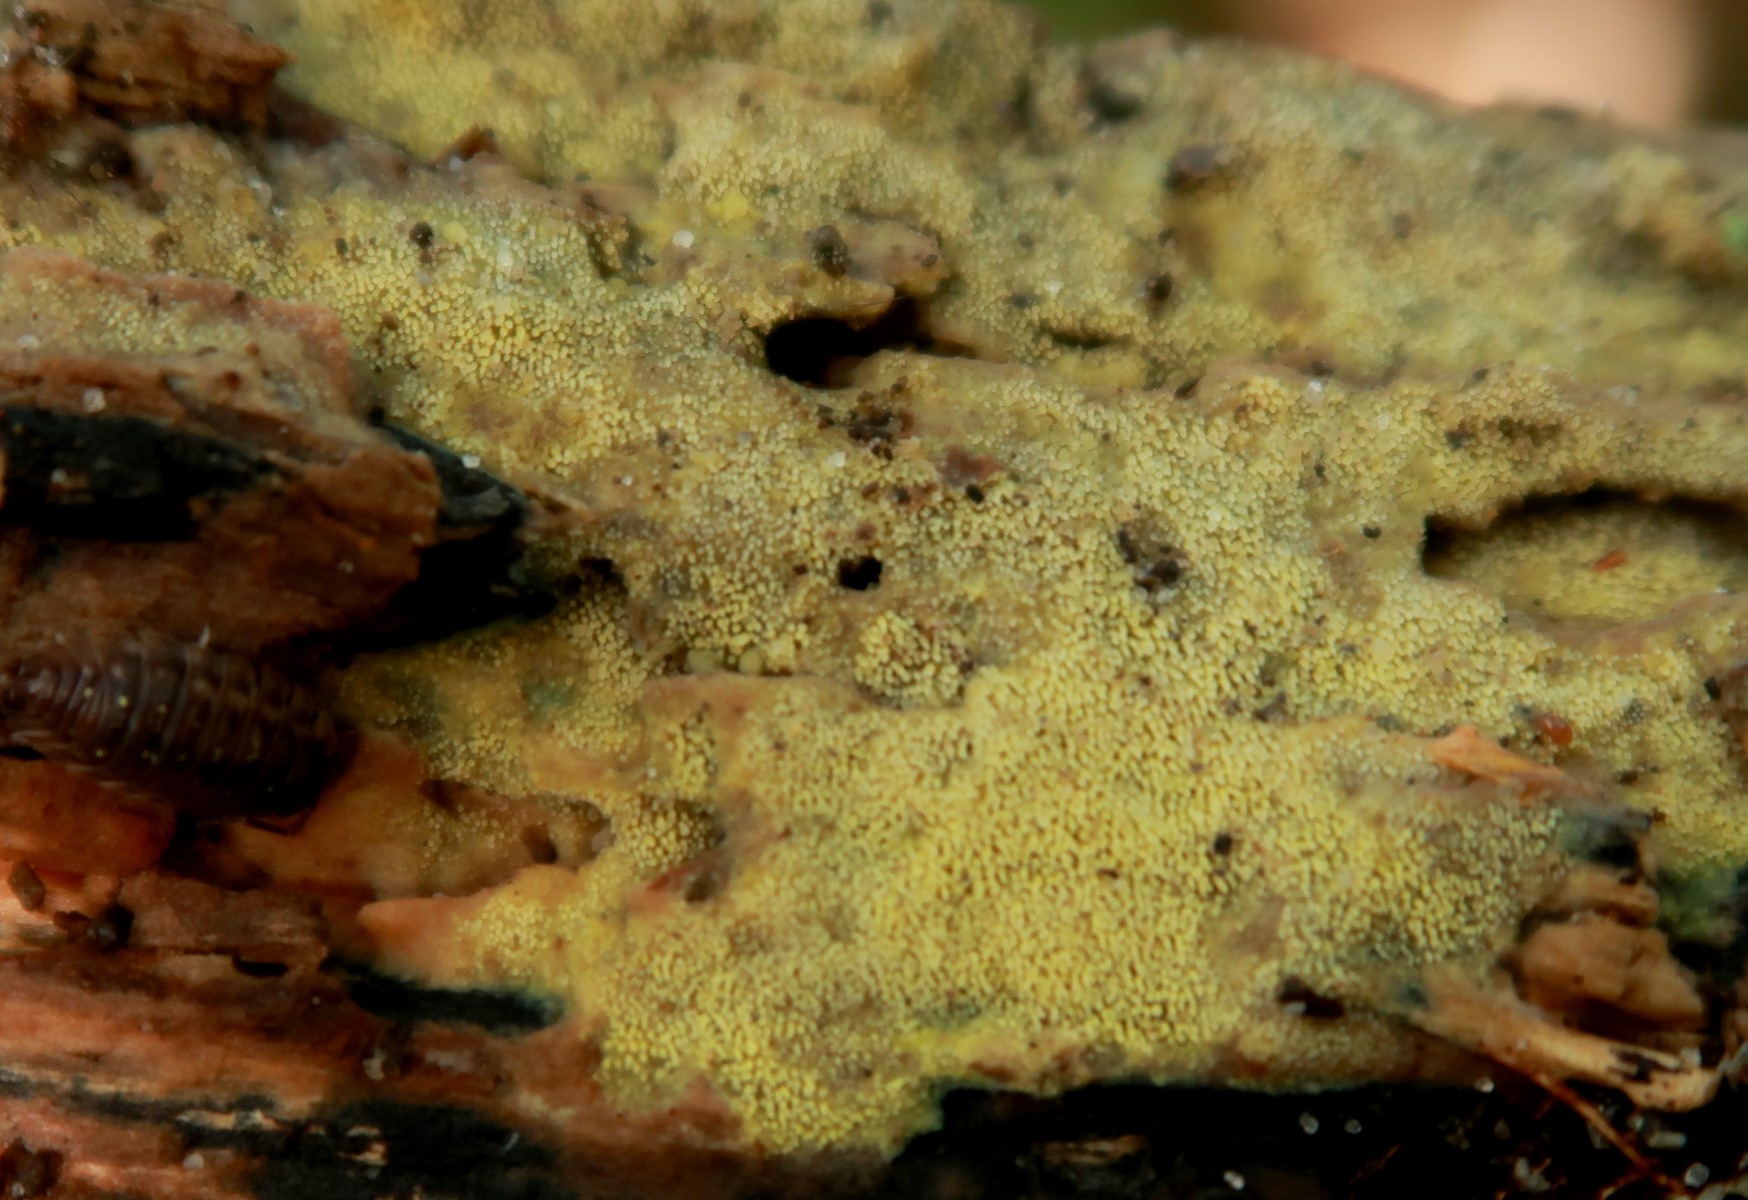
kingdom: Fungi
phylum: Basidiomycota
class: Agaricomycetes
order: Polyporales
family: Meruliaceae
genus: Mycoacia
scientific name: Mycoacia uda
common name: citrongul vokspig
